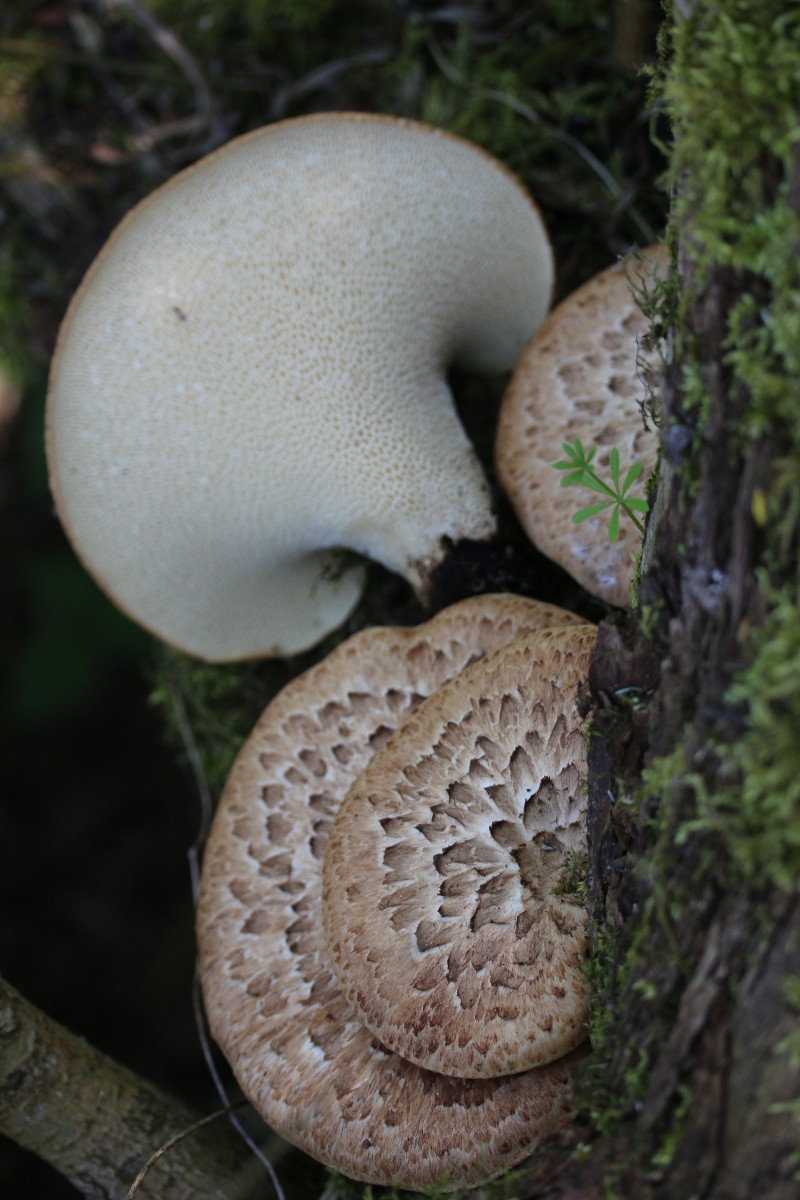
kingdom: Fungi
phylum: Basidiomycota
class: Agaricomycetes
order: Polyporales
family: Polyporaceae
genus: Cerioporus
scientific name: Cerioporus squamosus
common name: skællet stilkporesvamp
